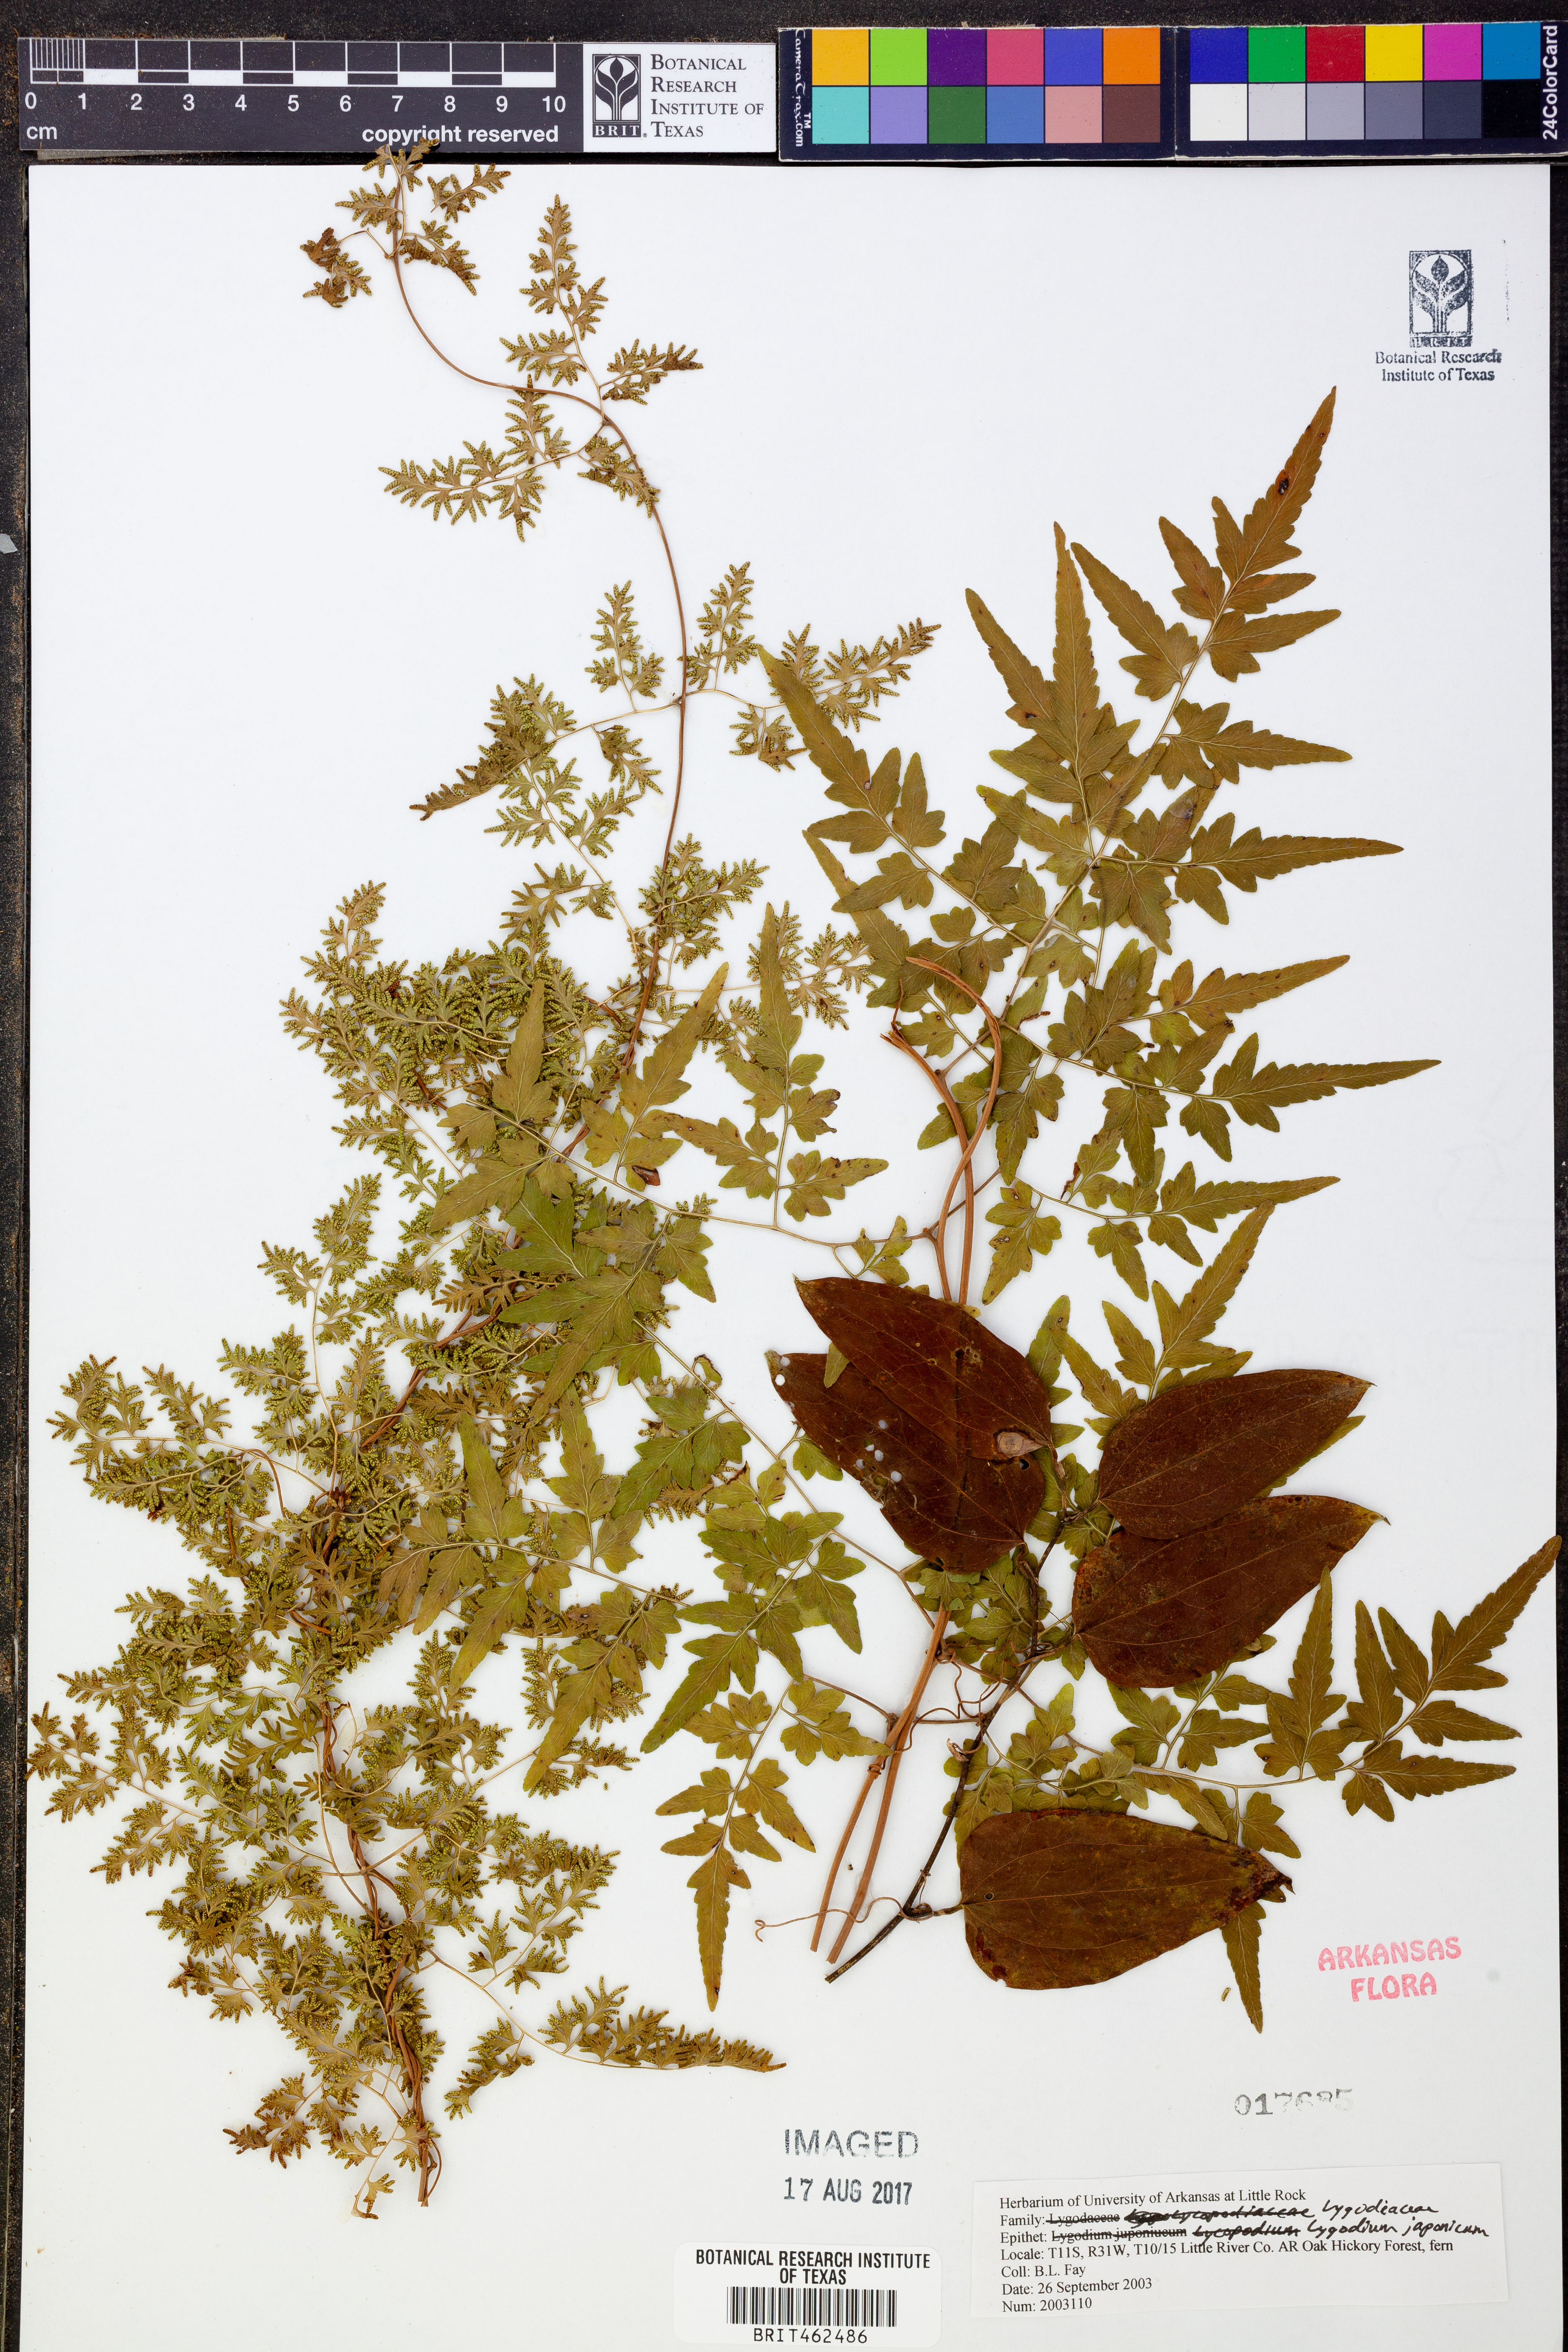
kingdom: Plantae
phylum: Tracheophyta
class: Polypodiopsida
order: Schizaeales
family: Lygodiaceae
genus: Lygodium
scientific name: Lygodium japonicum
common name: Japanese climbing fern
